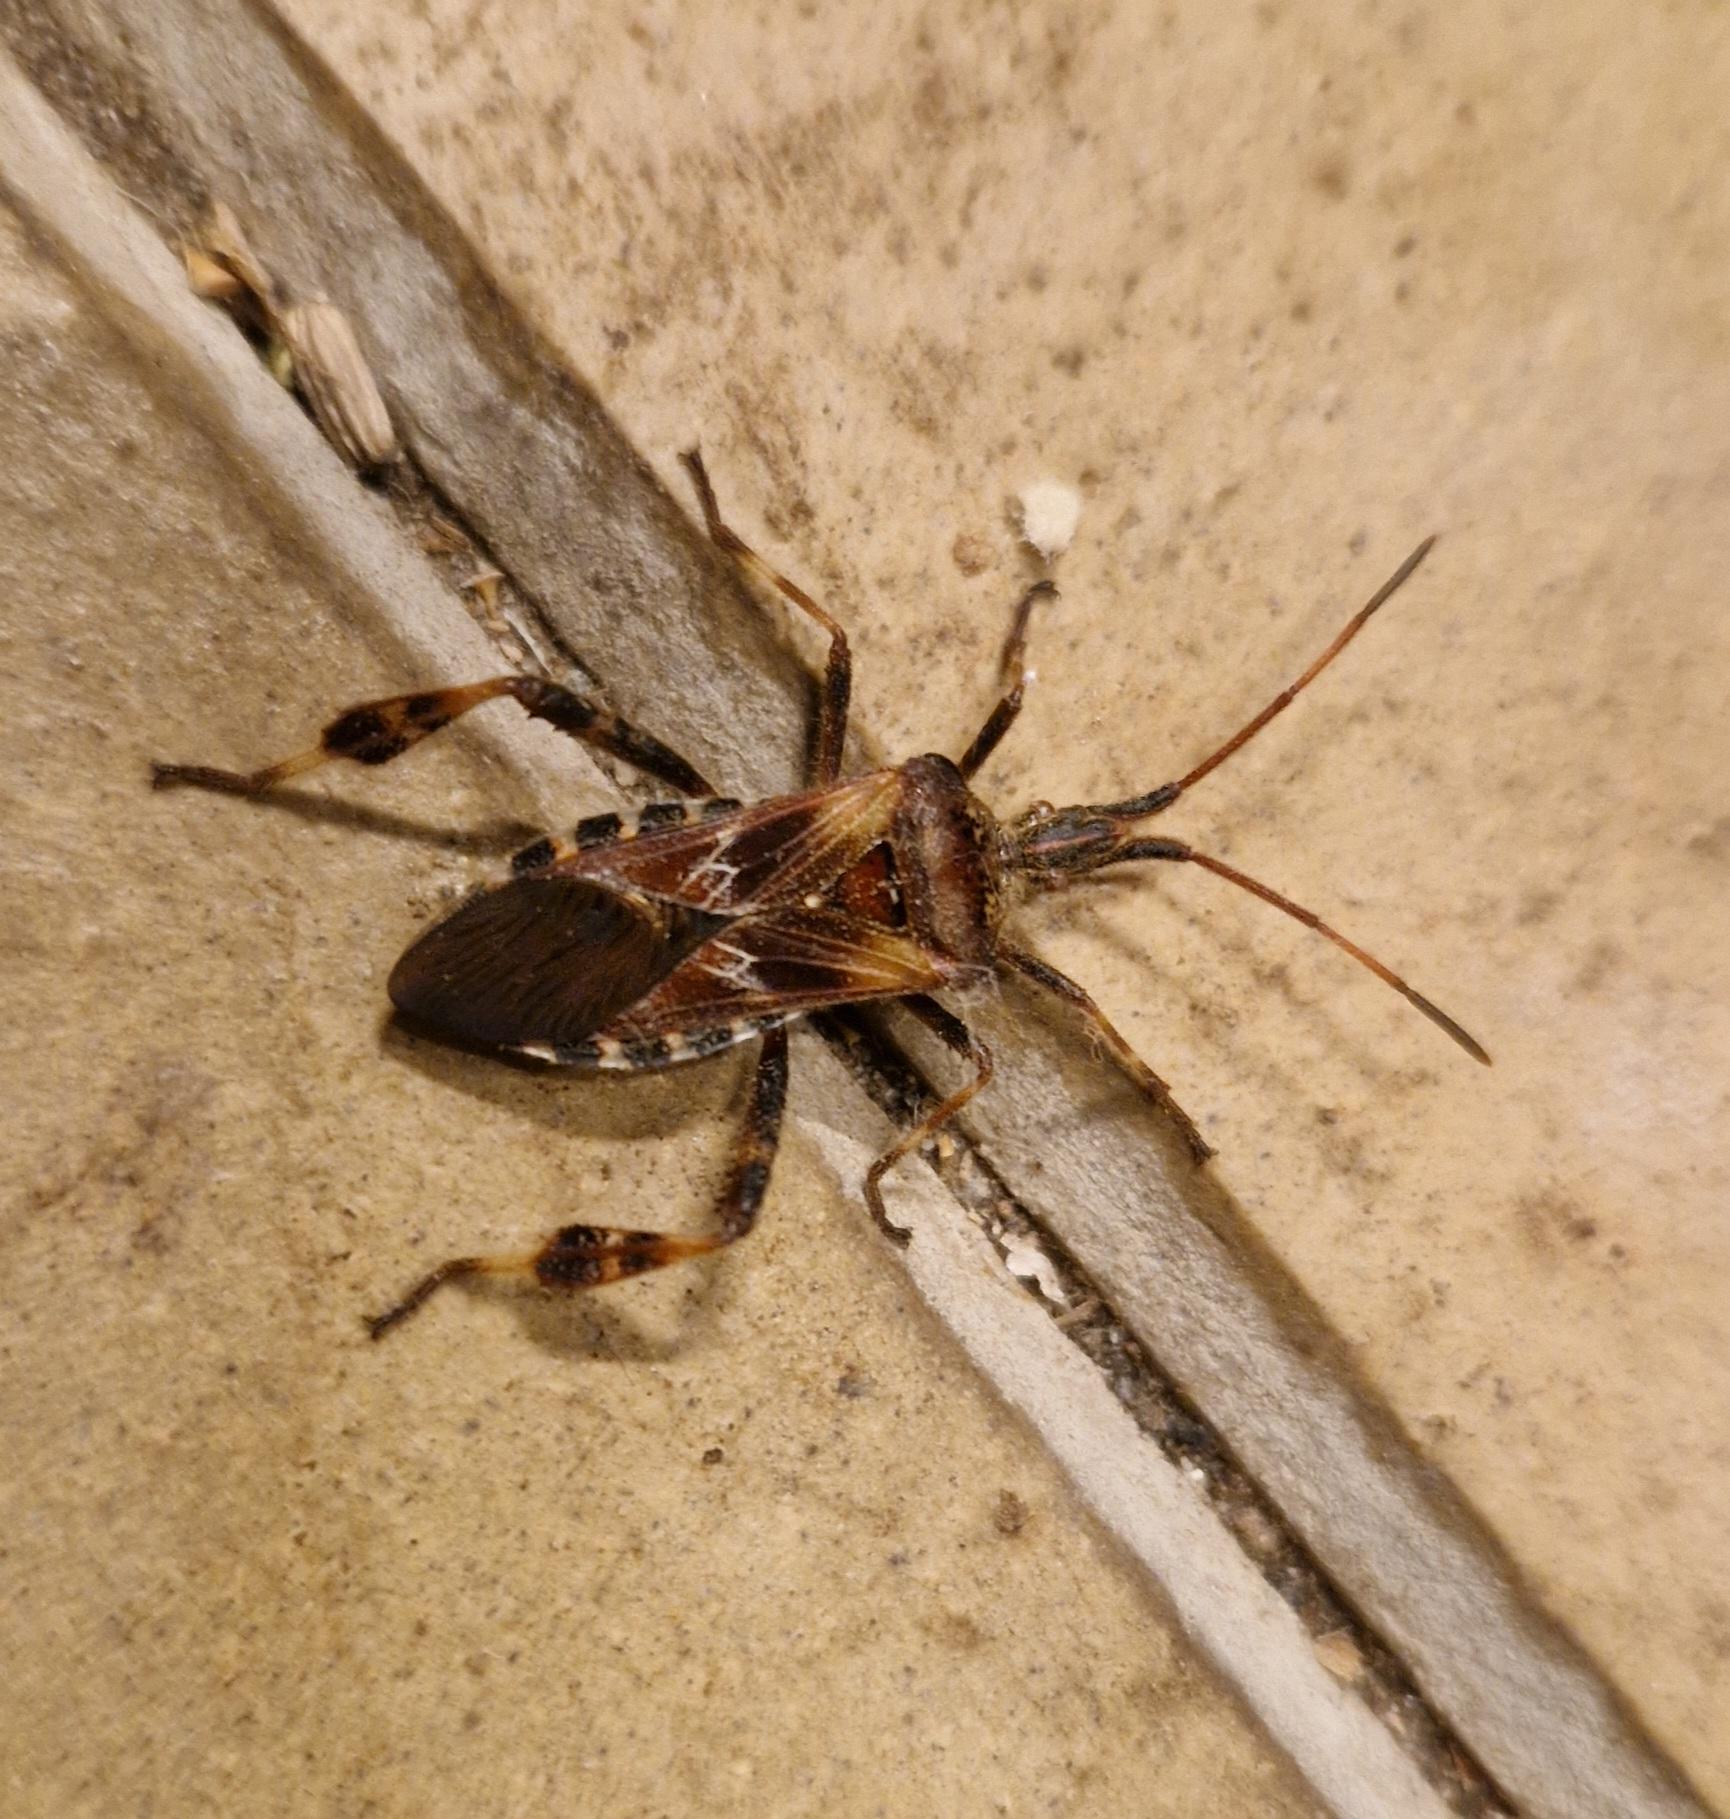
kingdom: Animalia
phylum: Arthropoda
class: Insecta
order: Hemiptera
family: Coreidae
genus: Leptoglossus
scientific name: Leptoglossus occidentalis
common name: Amerikansk fyrretæge
